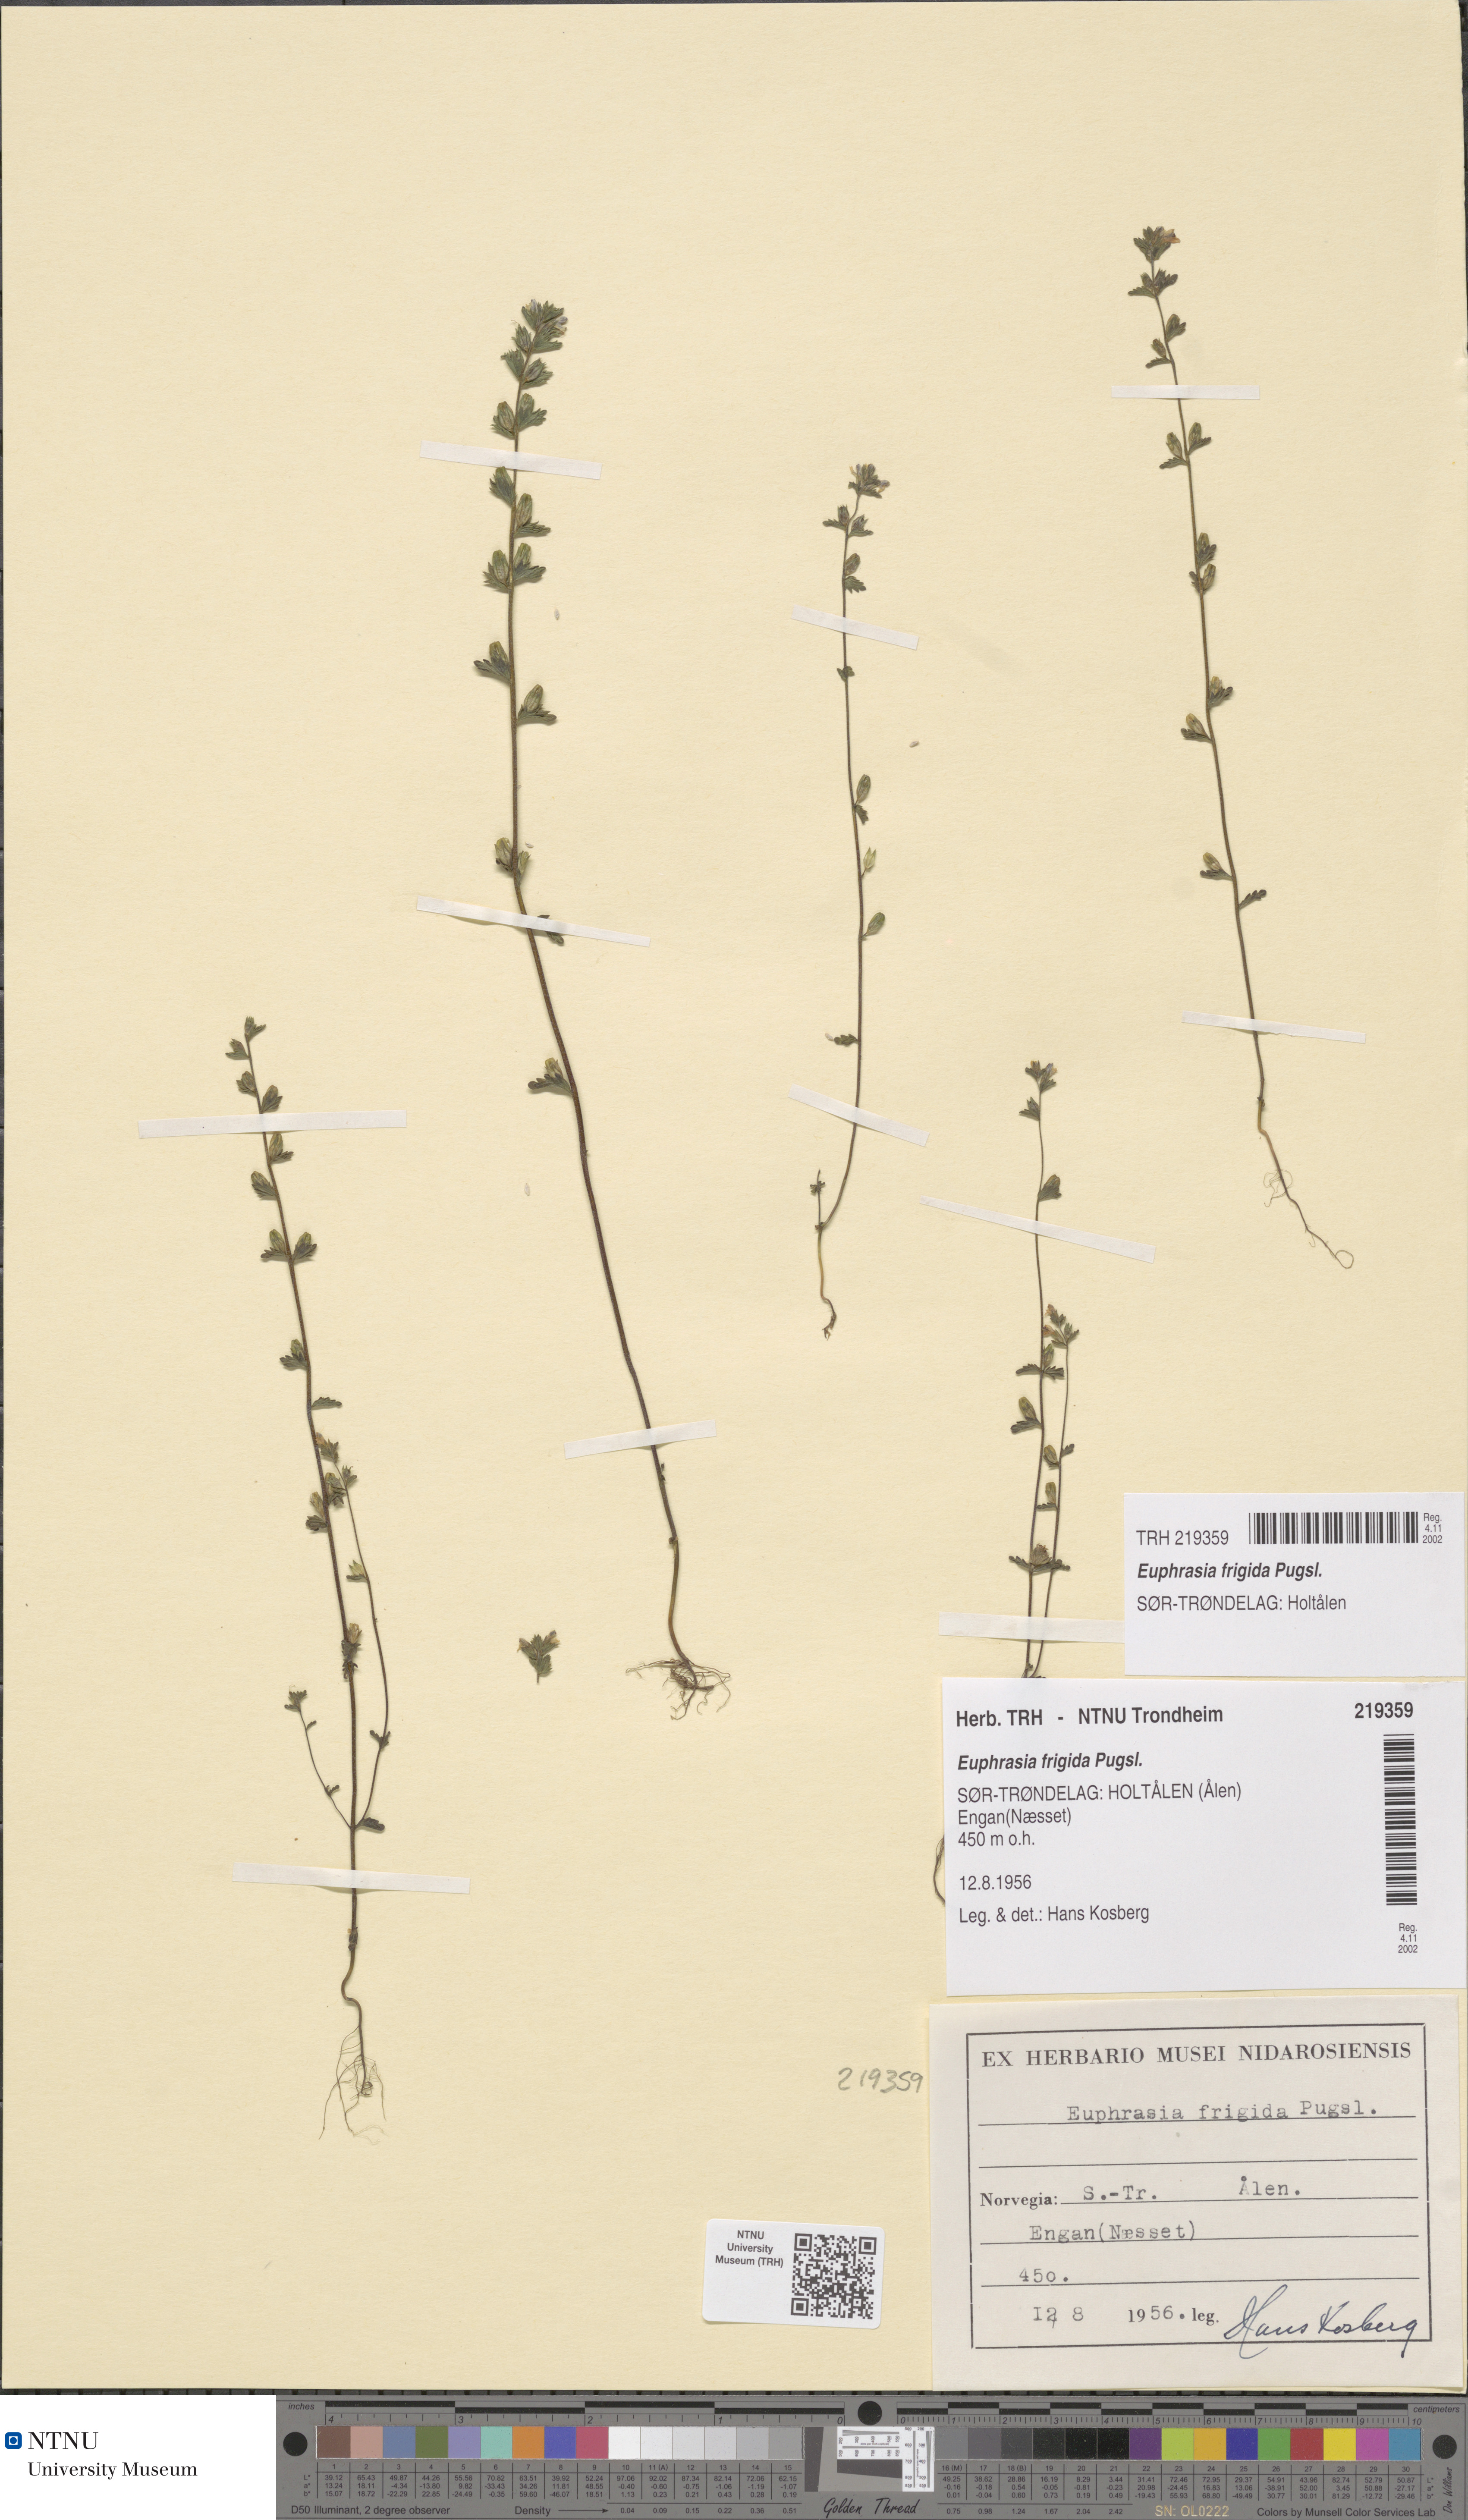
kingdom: Plantae
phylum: Tracheophyta
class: Magnoliopsida
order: Lamiales
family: Orobanchaceae
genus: Euphrasia
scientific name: Euphrasia wettsteinii
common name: Wettstein's eyebright
